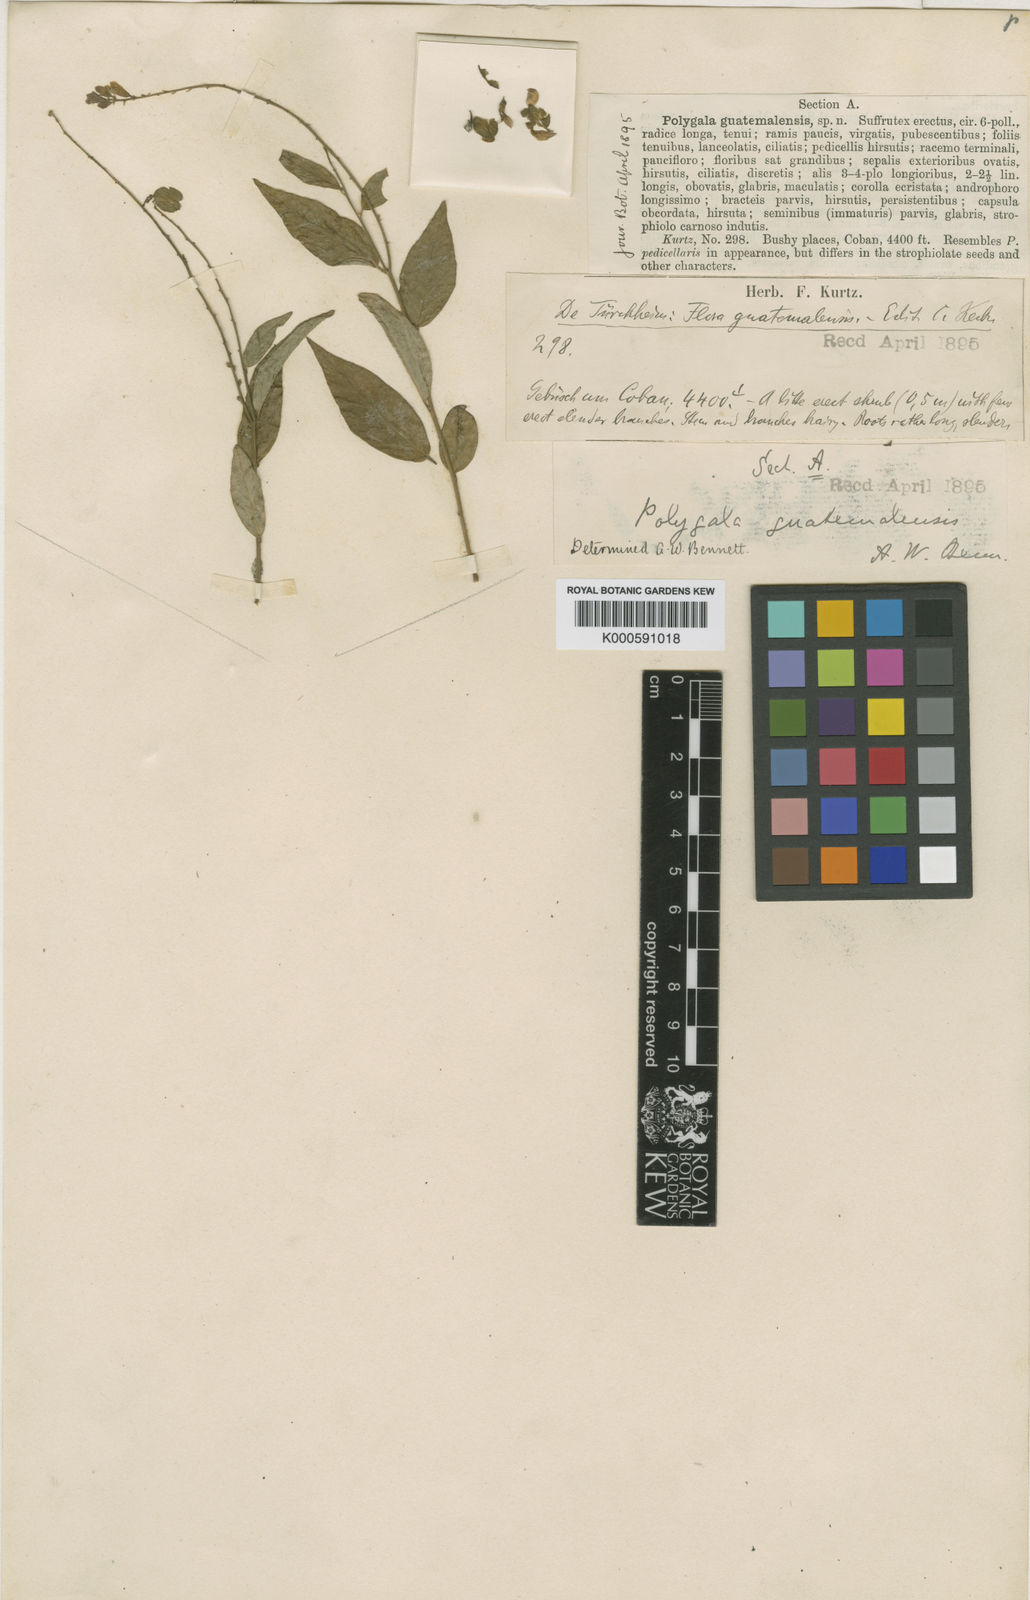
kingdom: Plantae
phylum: Tracheophyta
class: Magnoliopsida
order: Fabales
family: Polygalaceae
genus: Hebecarpa
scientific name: Hebecarpa costaricensis
